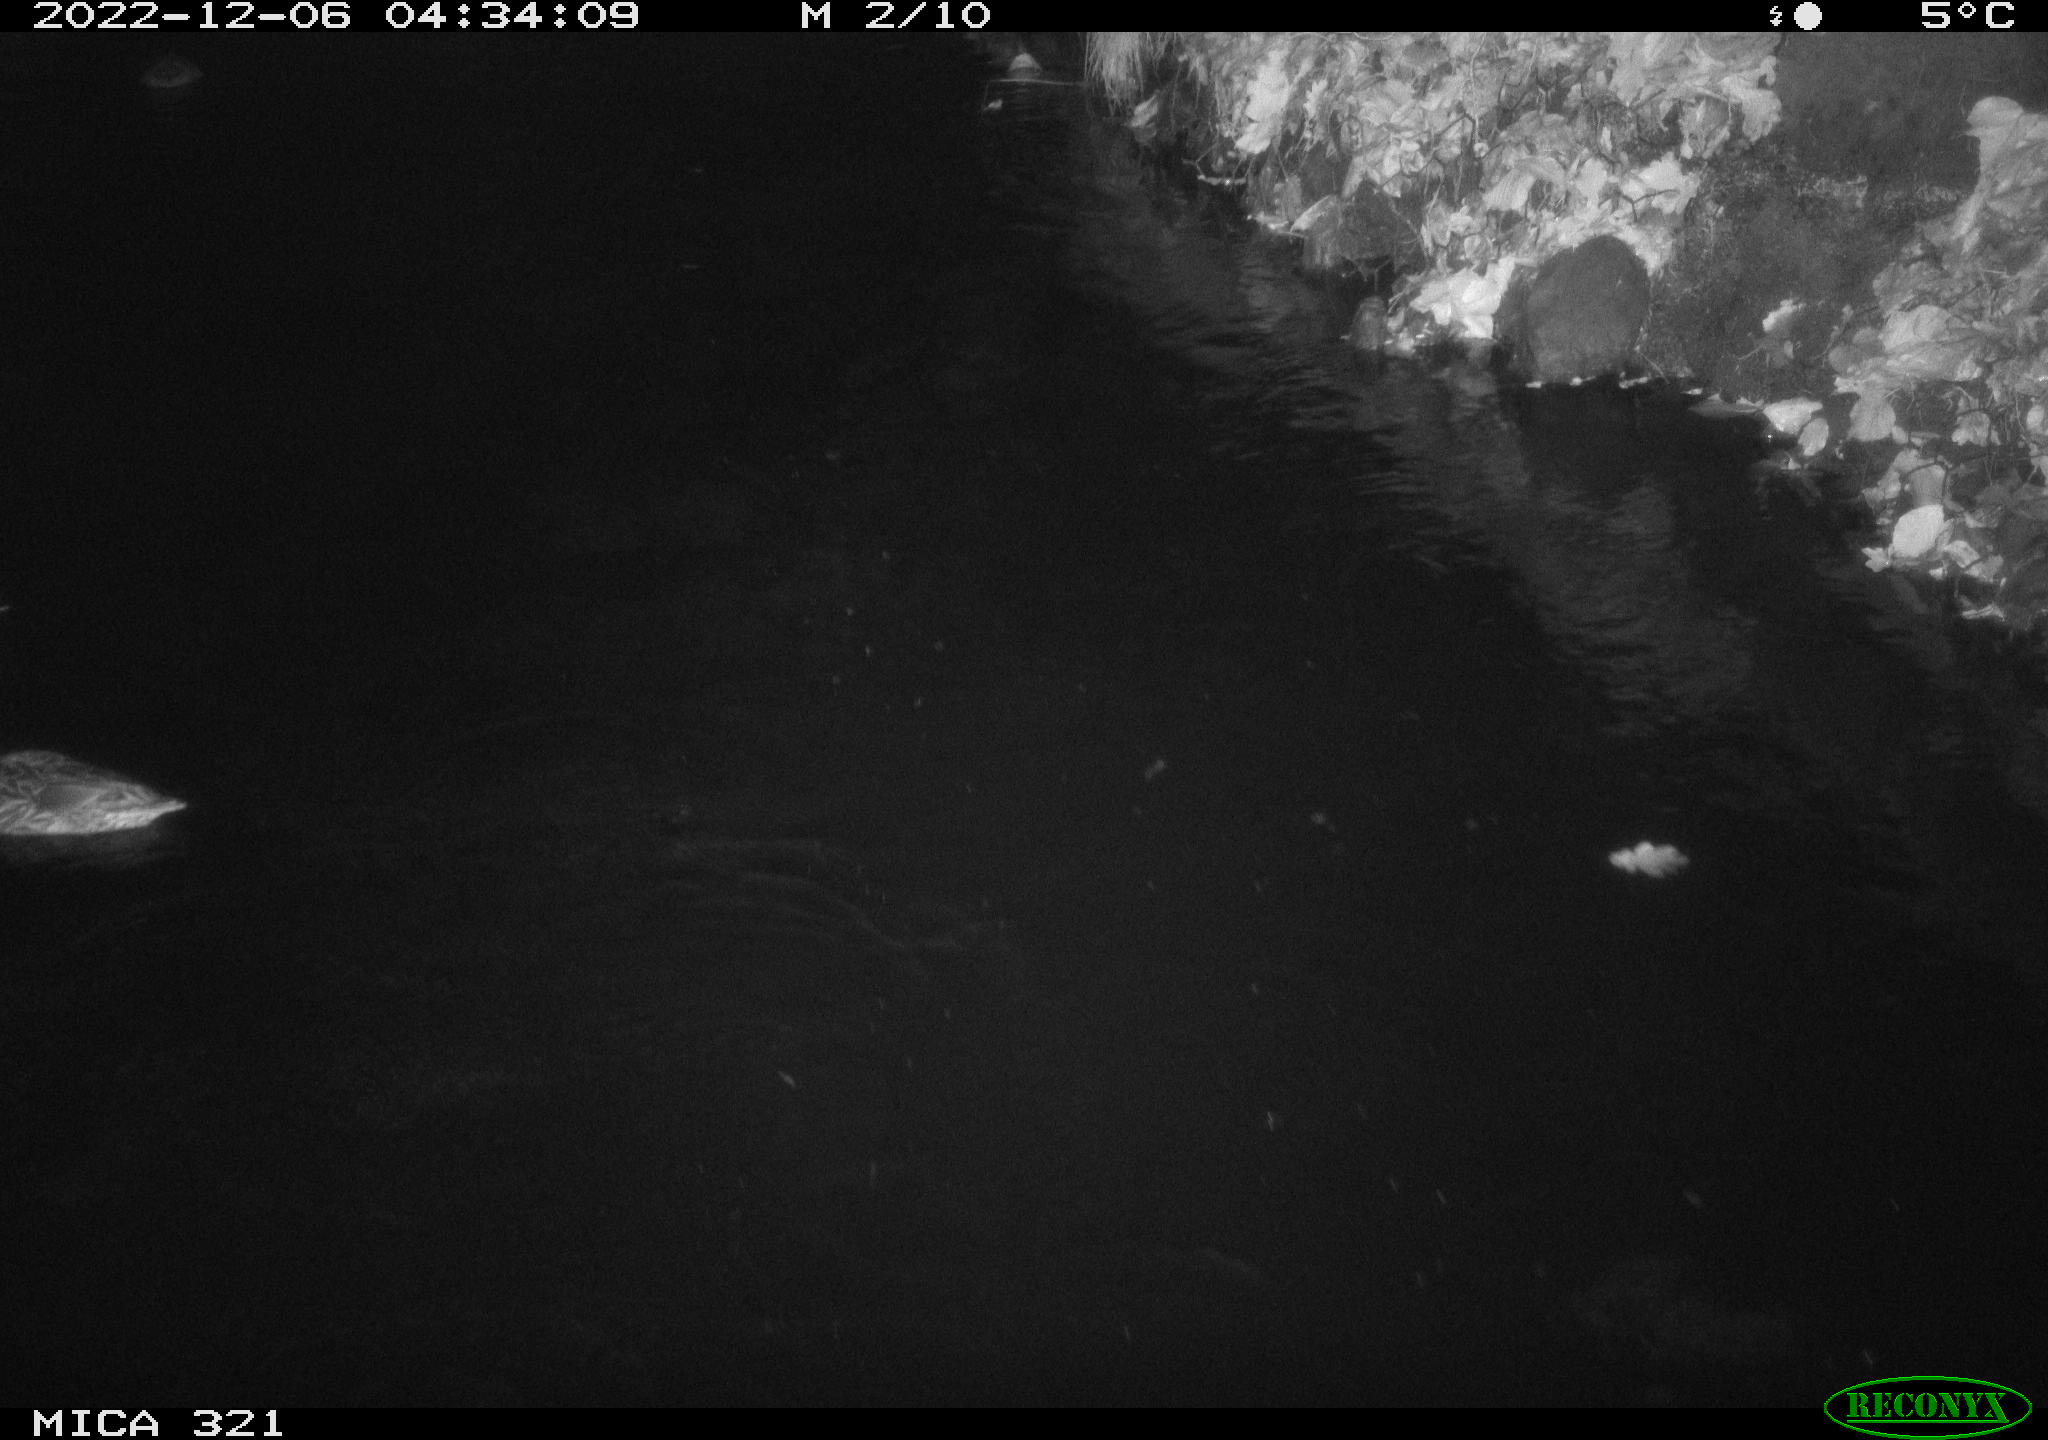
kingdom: Animalia
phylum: Chordata
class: Aves
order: Anseriformes
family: Anatidae
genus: Anas
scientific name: Anas
